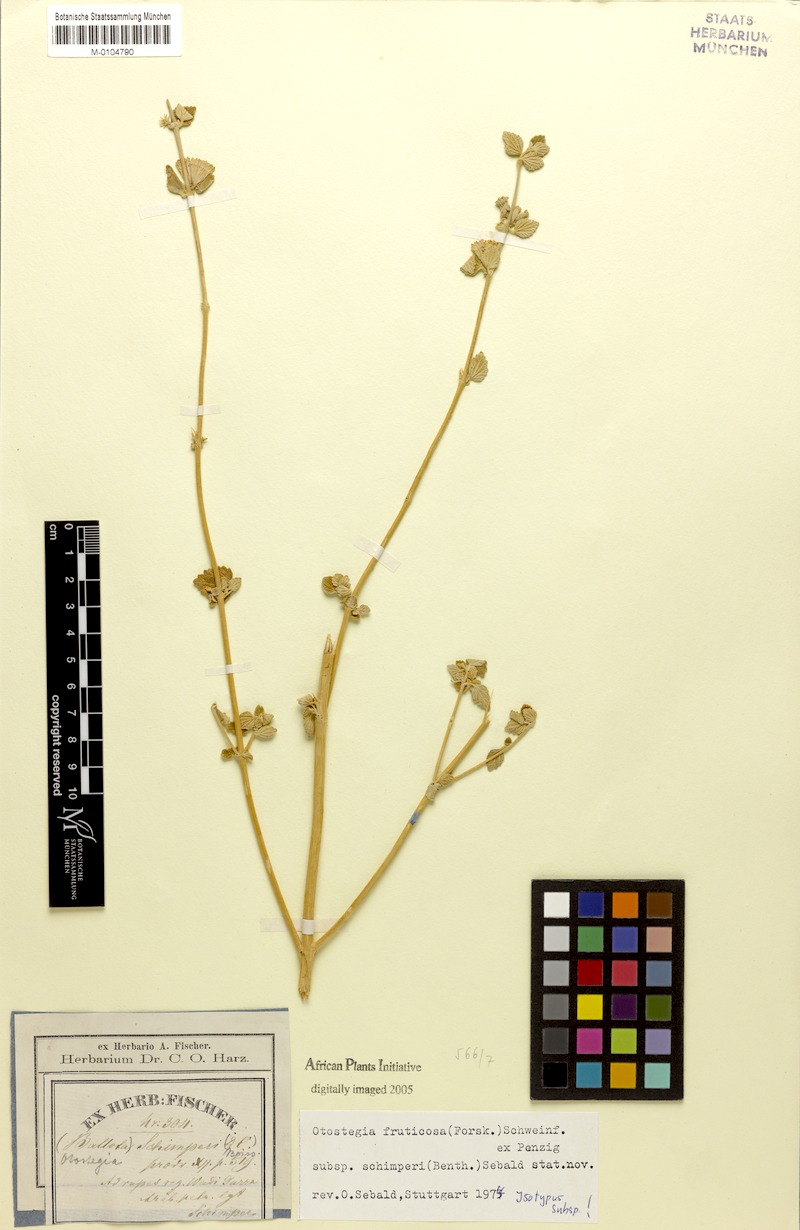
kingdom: Plantae
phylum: Tracheophyta
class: Magnoliopsida
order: Lamiales
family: Lamiaceae
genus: Otostegia
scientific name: Otostegia fruticosa
